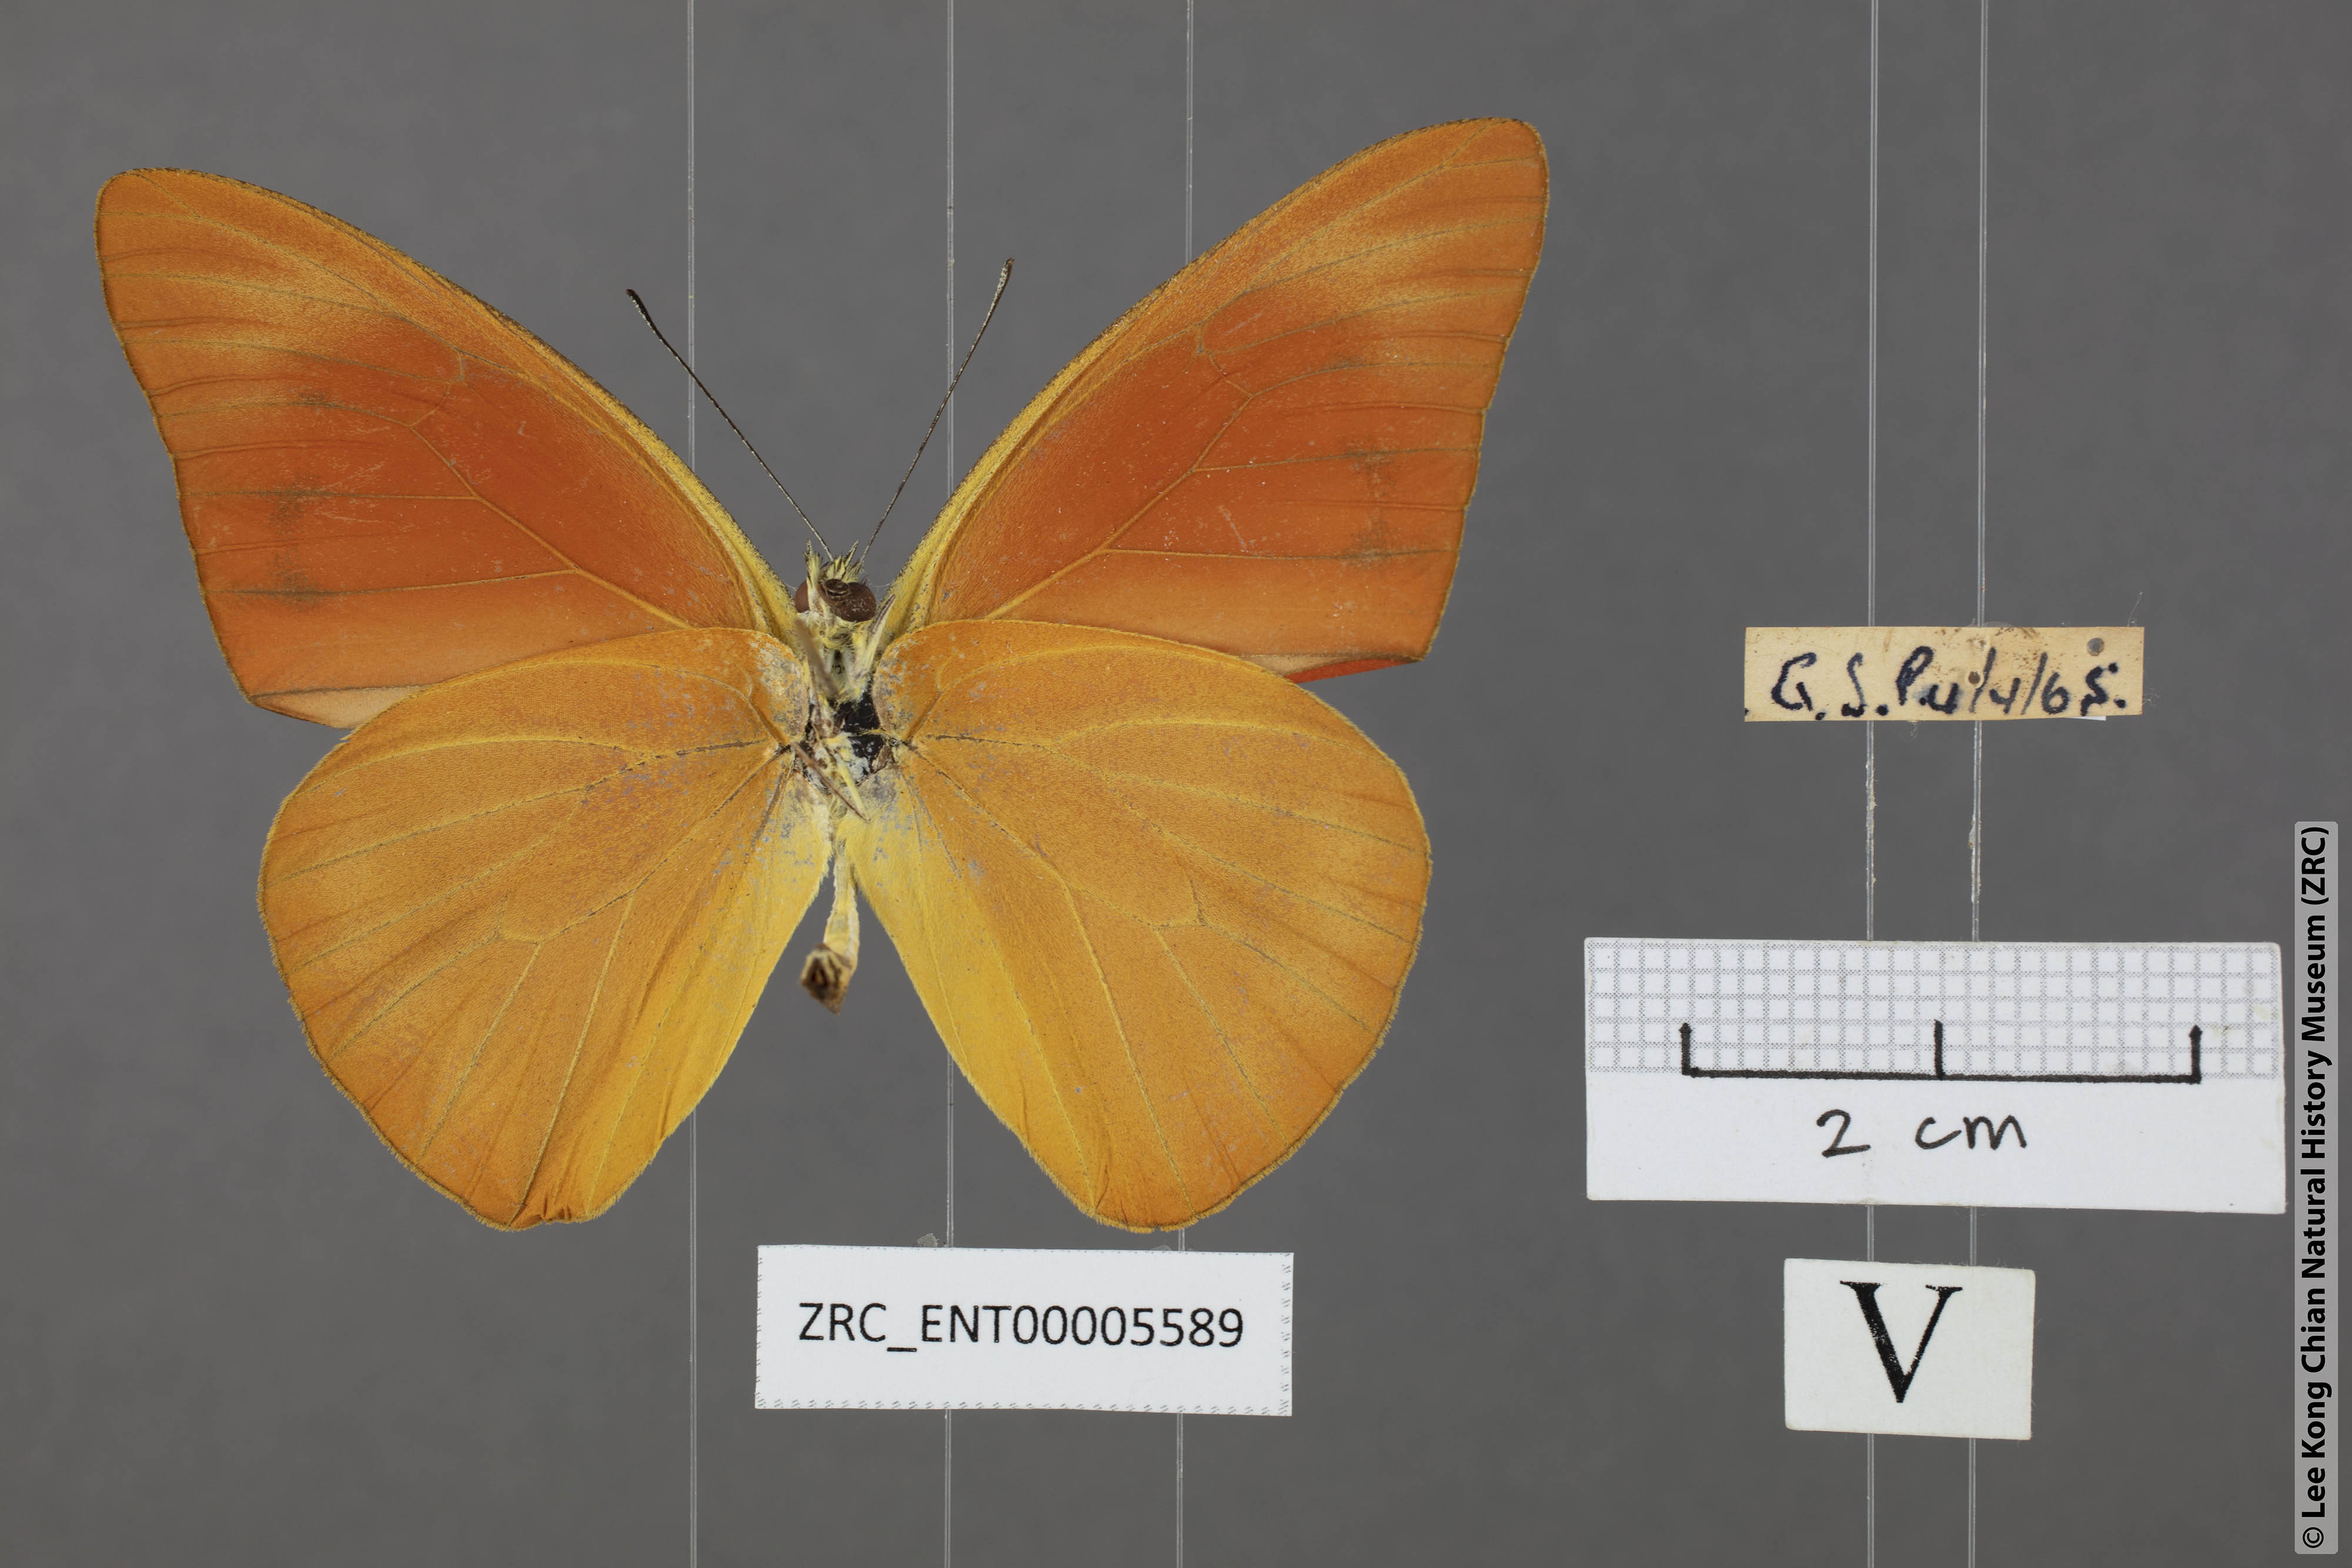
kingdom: Animalia
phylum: Arthropoda
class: Insecta
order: Lepidoptera
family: Pieridae
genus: Appias
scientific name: Appias nero
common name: Orange albatross
